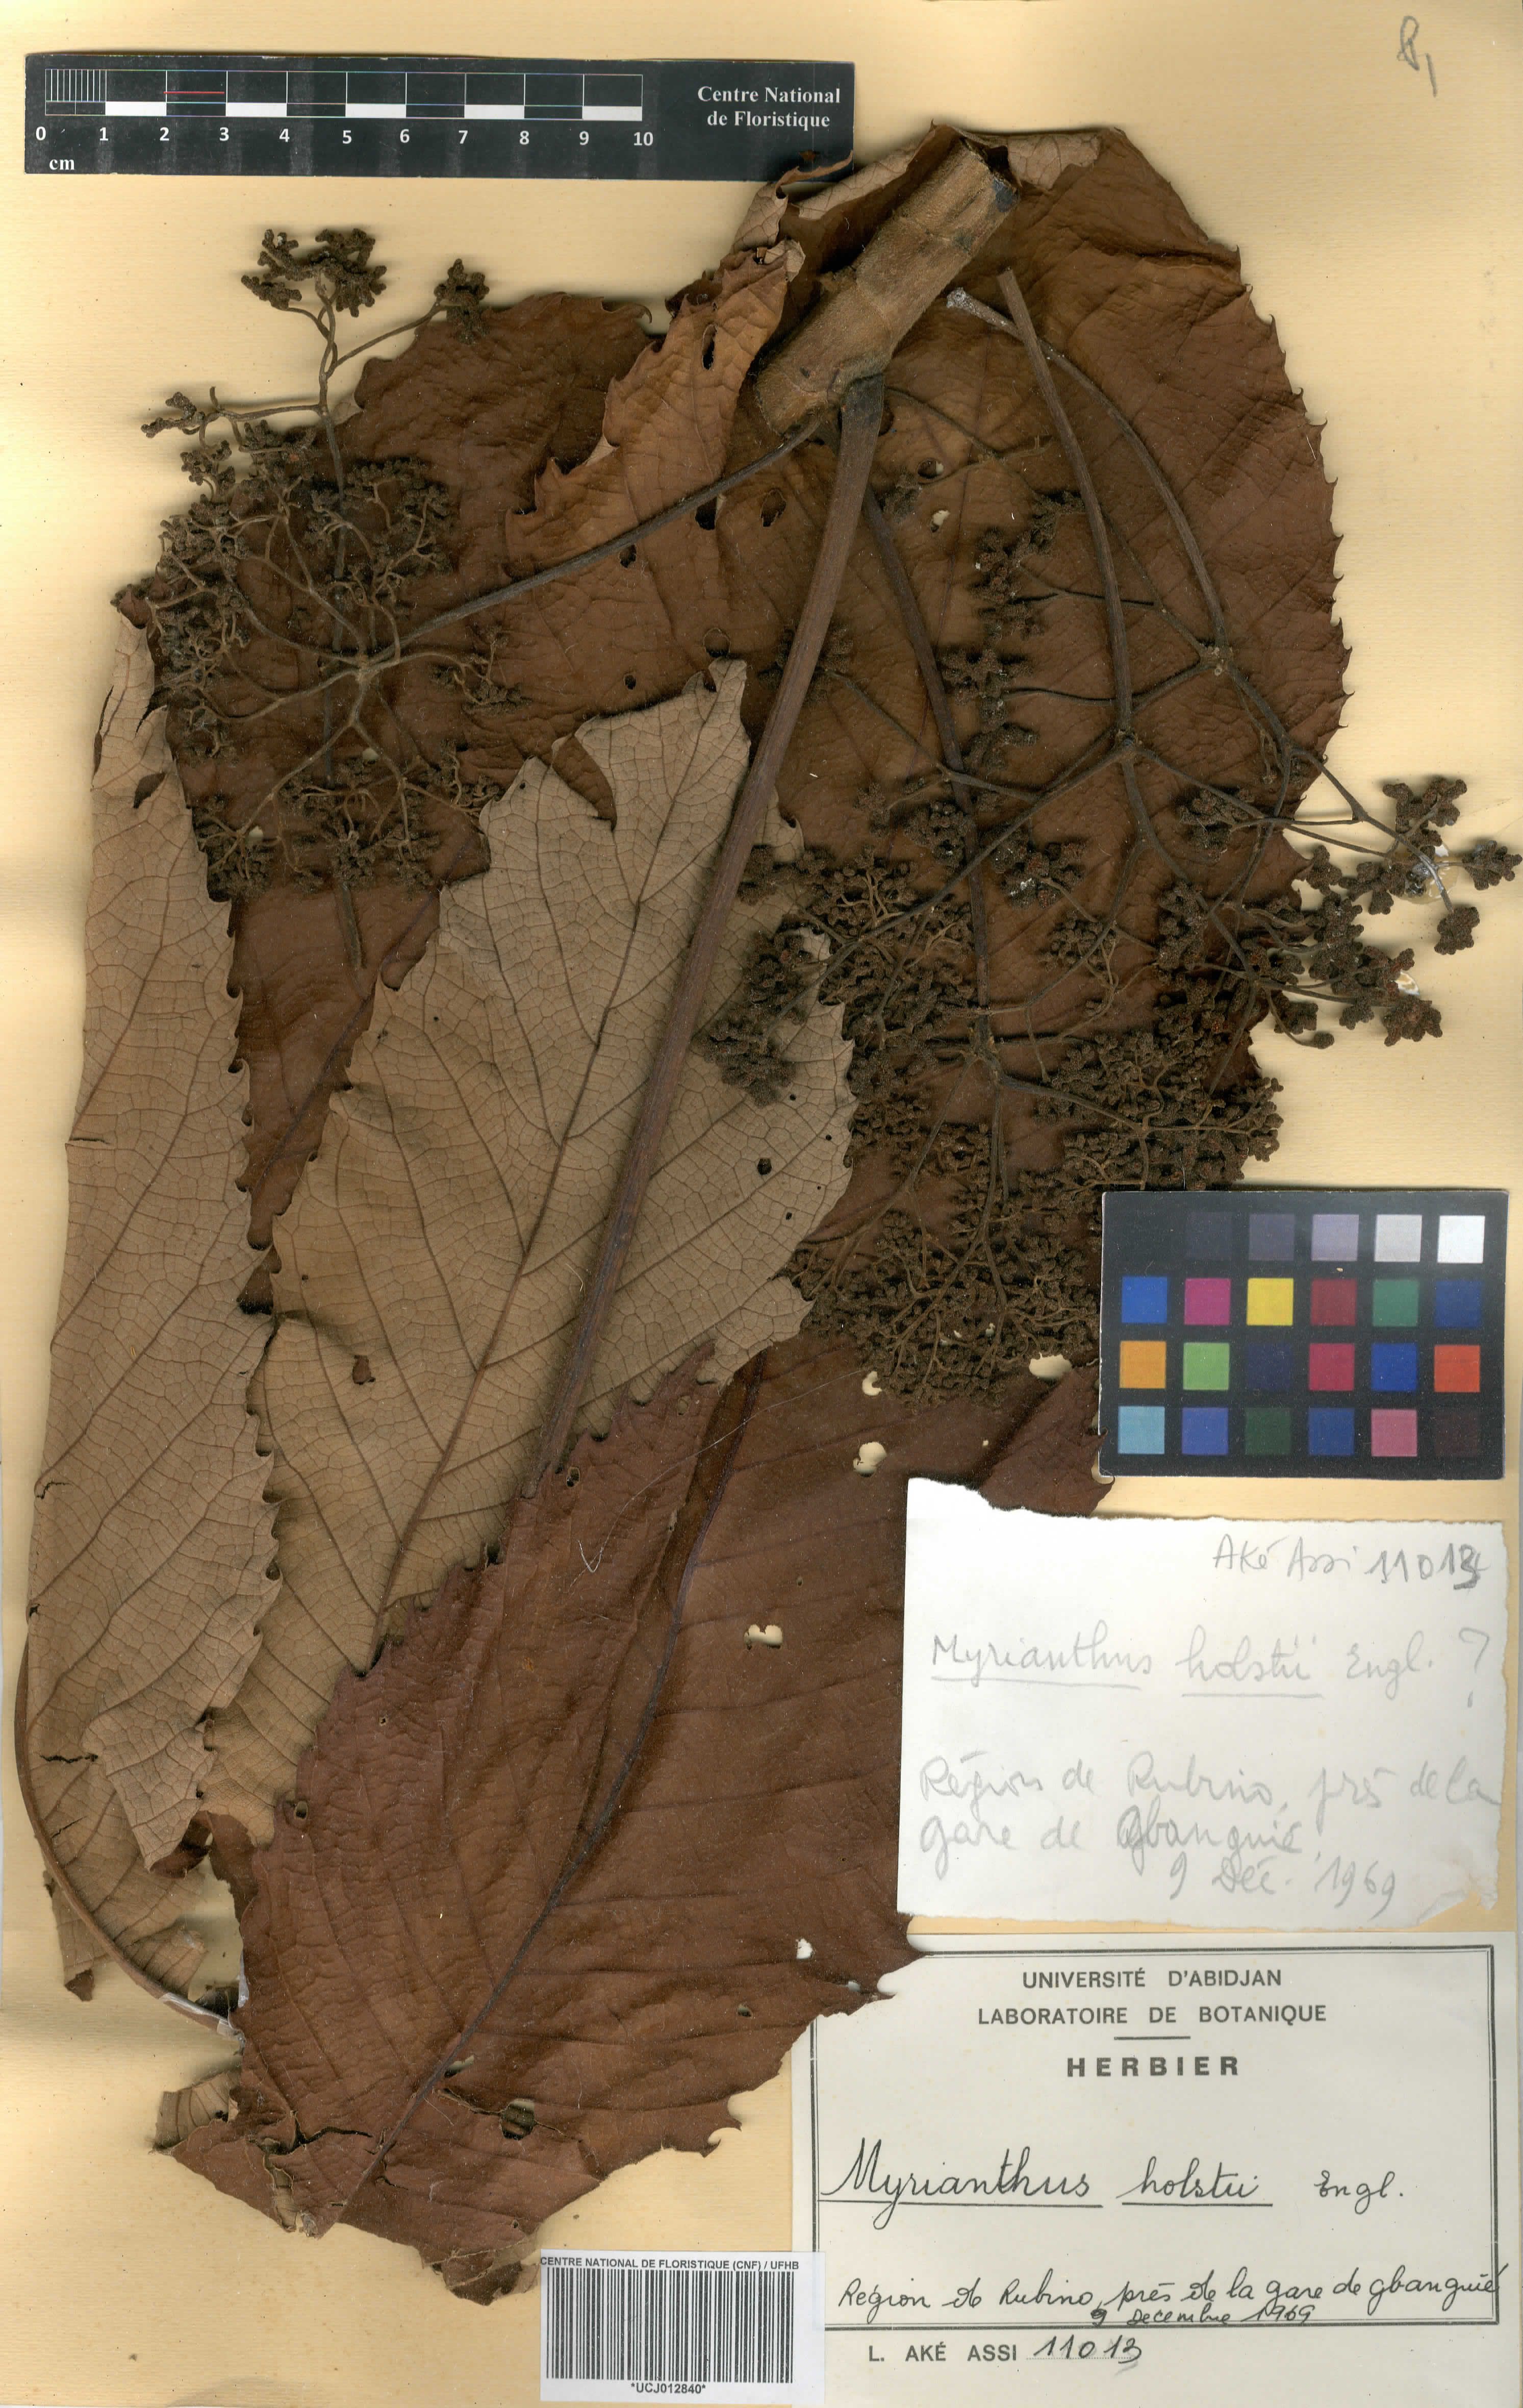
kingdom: Plantae
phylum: Tracheophyta
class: Magnoliopsida
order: Rosales
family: Urticaceae
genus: Myrianthus
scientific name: Myrianthus holstii
